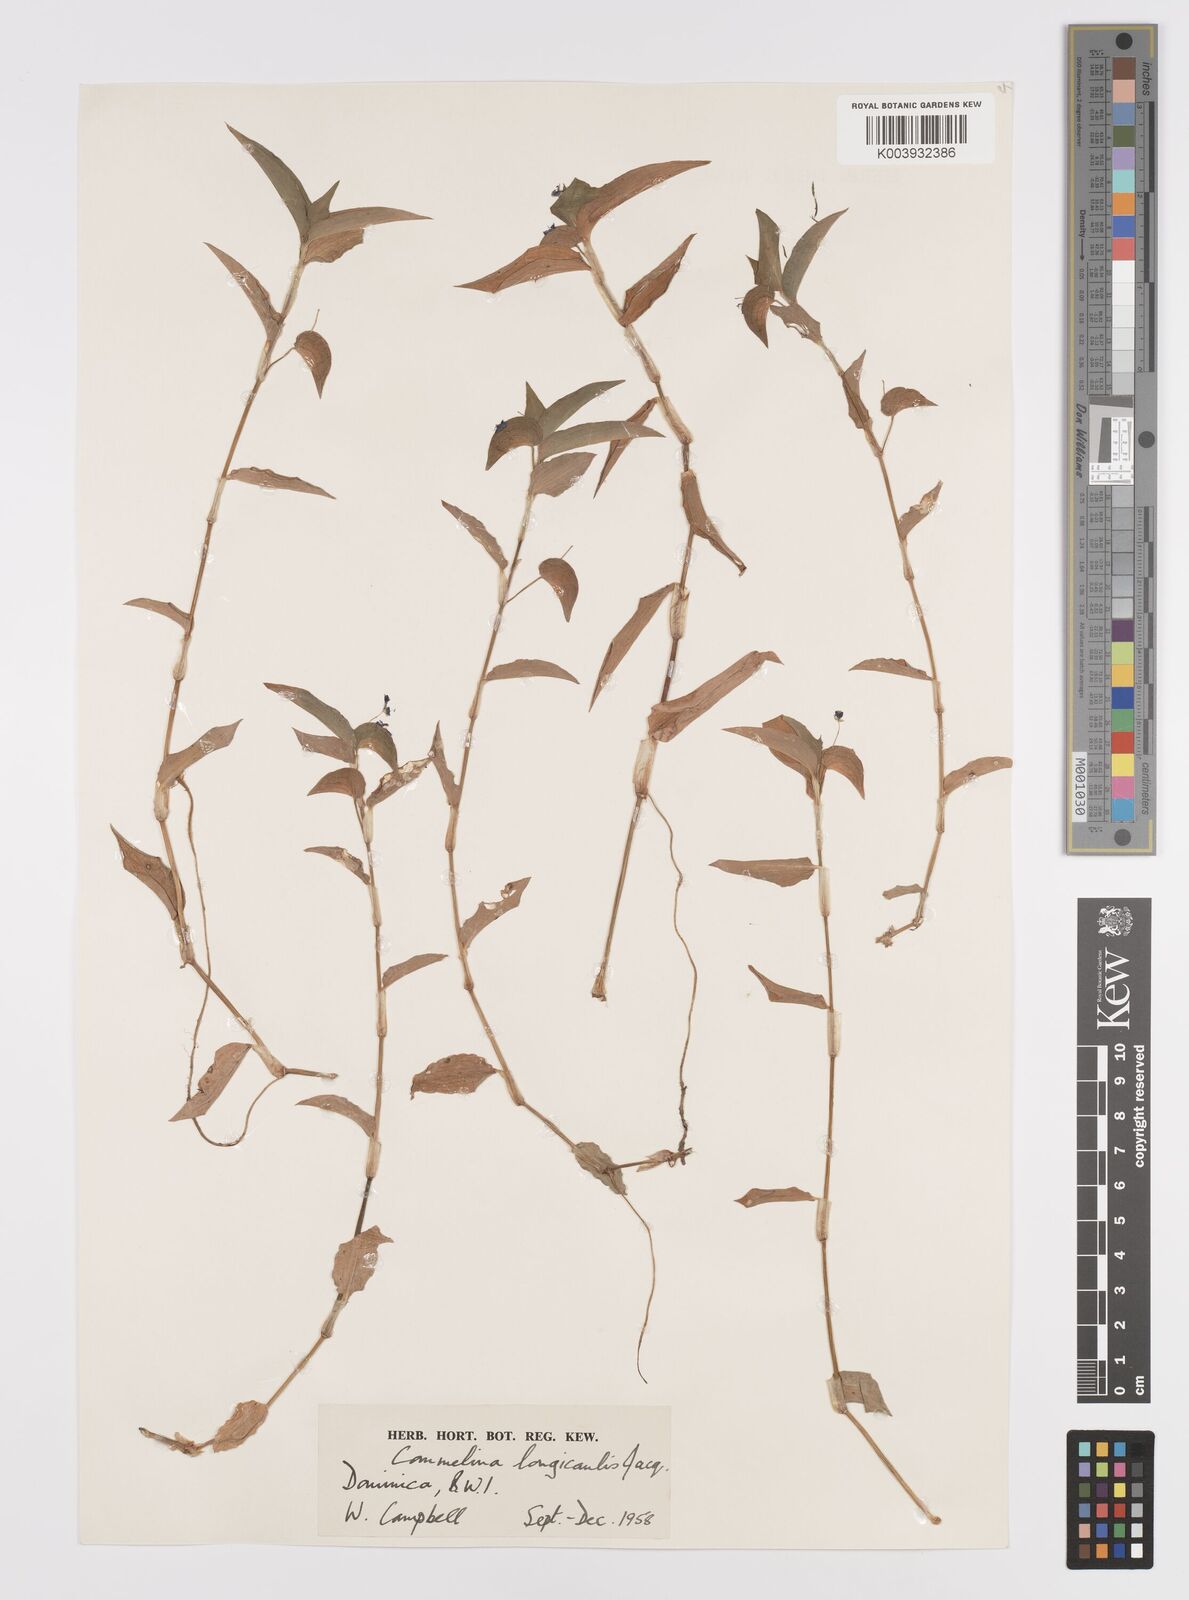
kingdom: Plantae
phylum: Tracheophyta
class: Liliopsida
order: Commelinales
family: Commelinaceae
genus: Commelina
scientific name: Commelina
